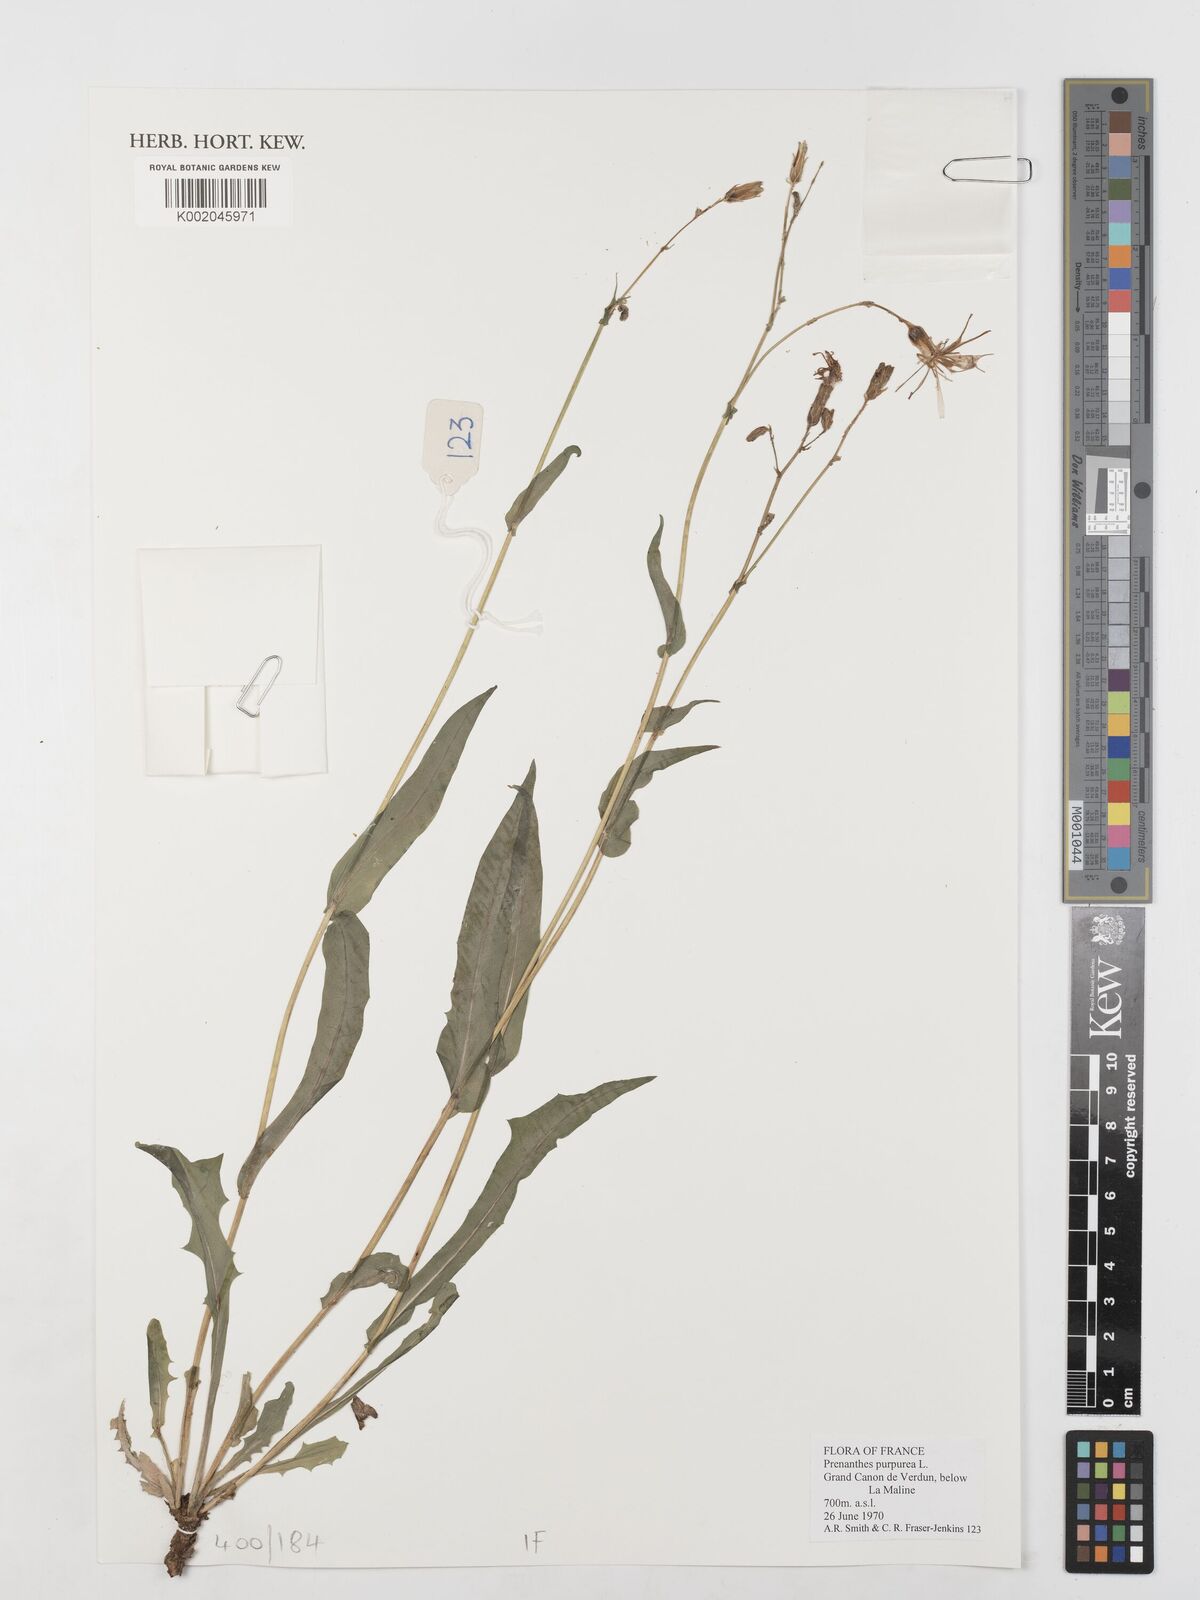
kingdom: Plantae
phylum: Tracheophyta
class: Magnoliopsida
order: Asterales
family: Asteraceae
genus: Prenanthes
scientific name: Prenanthes purpurea
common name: Purple lettuce
